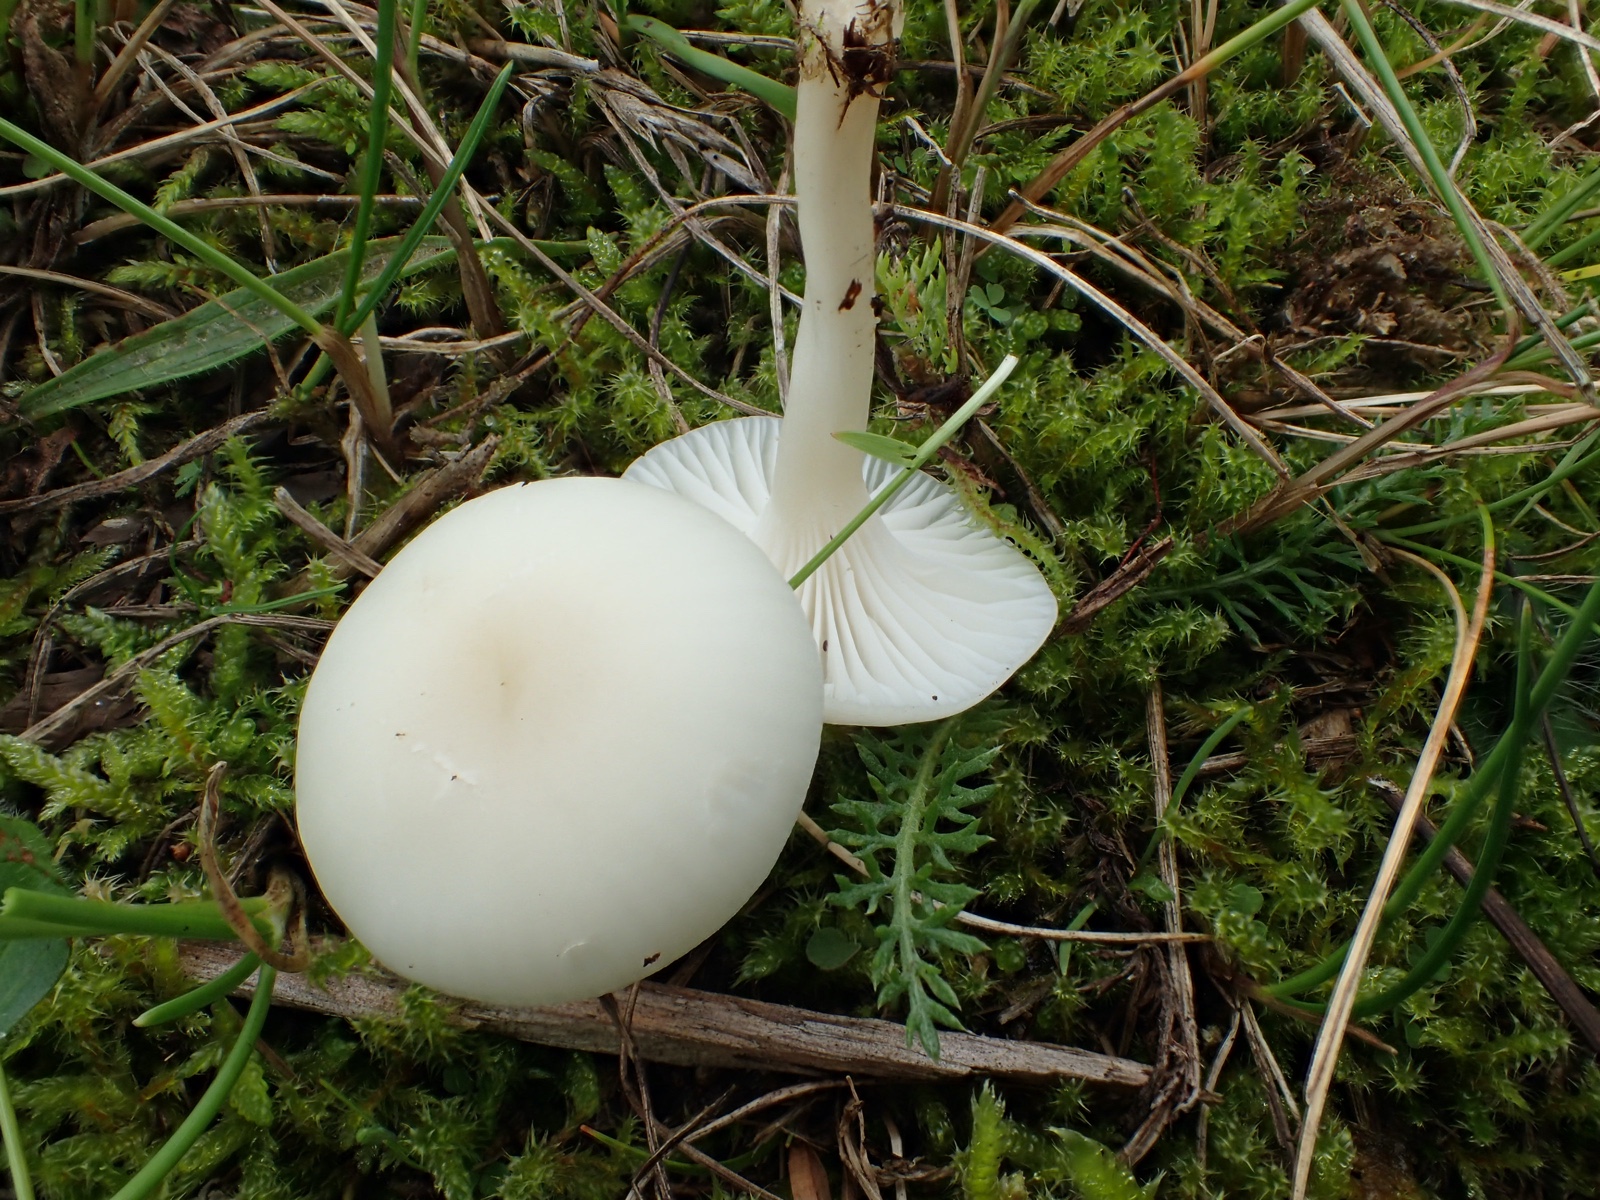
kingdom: Fungi
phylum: Basidiomycota
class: Agaricomycetes
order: Agaricales
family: Hygrophoraceae
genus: Cuphophyllus
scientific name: Cuphophyllus
